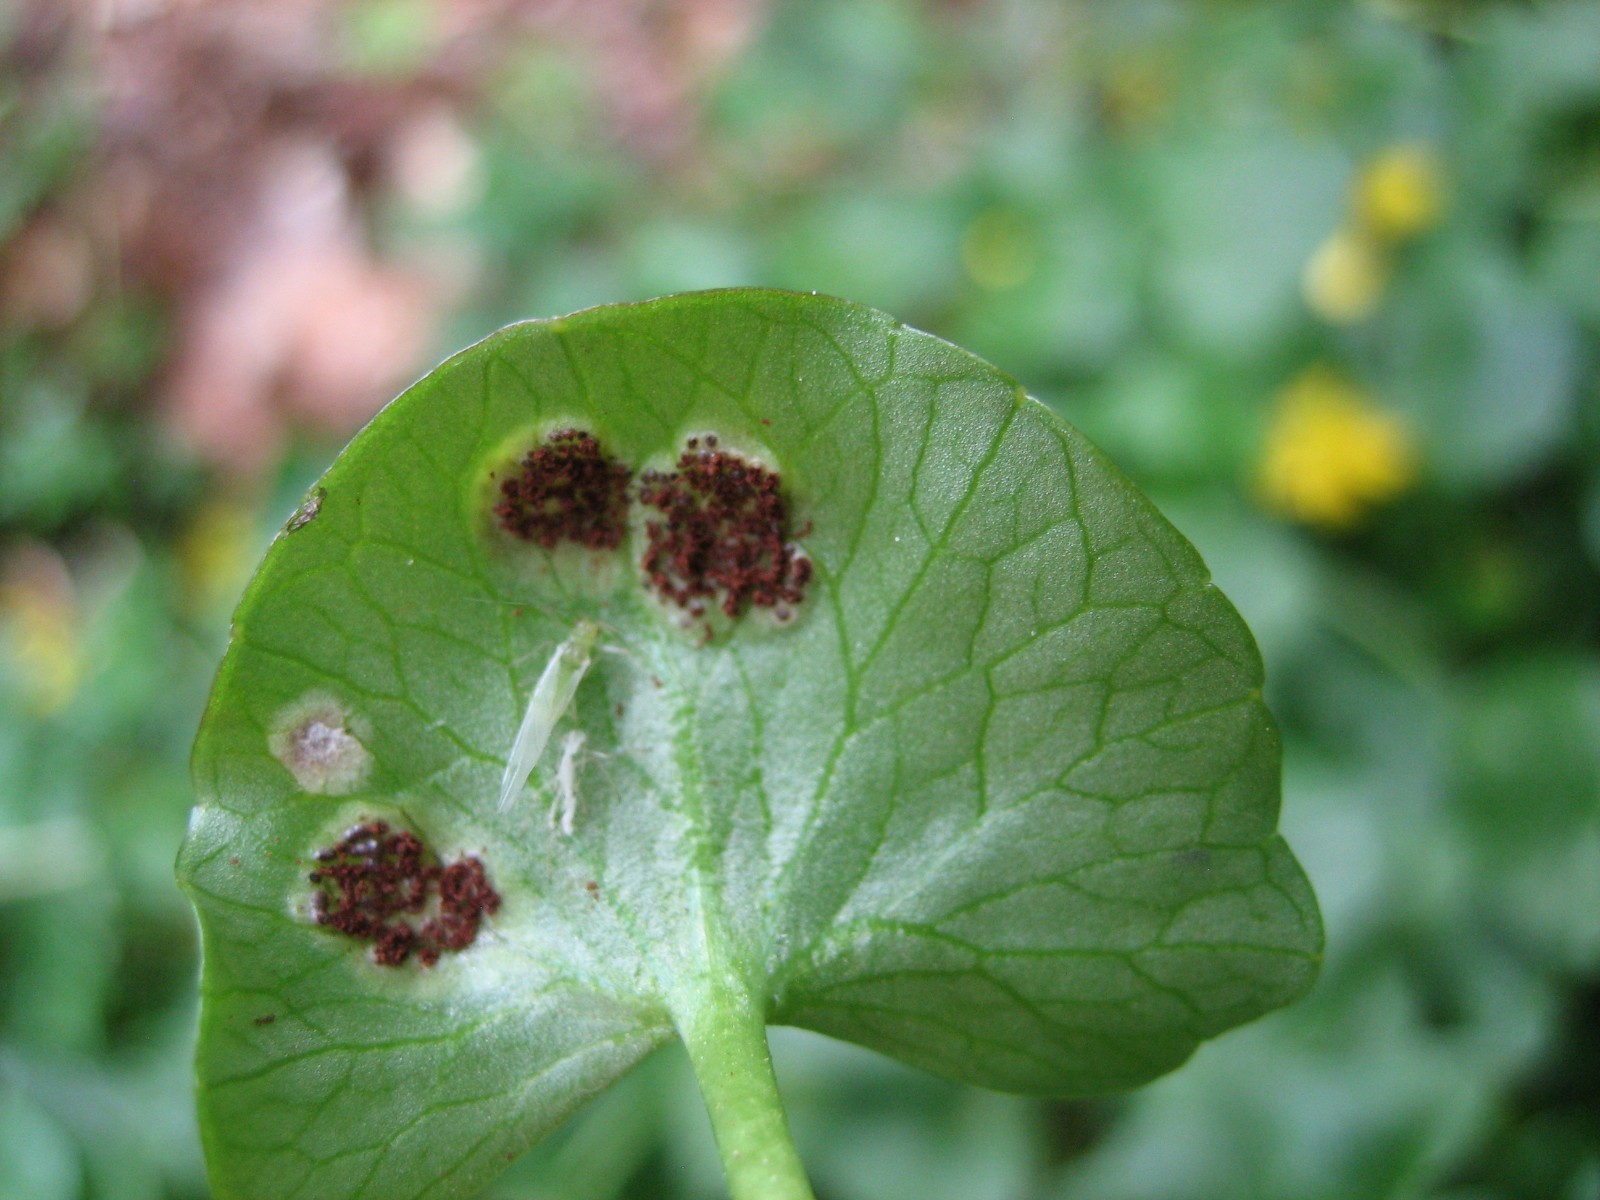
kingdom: Fungi
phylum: Basidiomycota
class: Pucciniomycetes
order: Pucciniales
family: Pucciniaceae
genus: Uromyces
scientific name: Uromyces ficariae
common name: vorterod-encellerust
